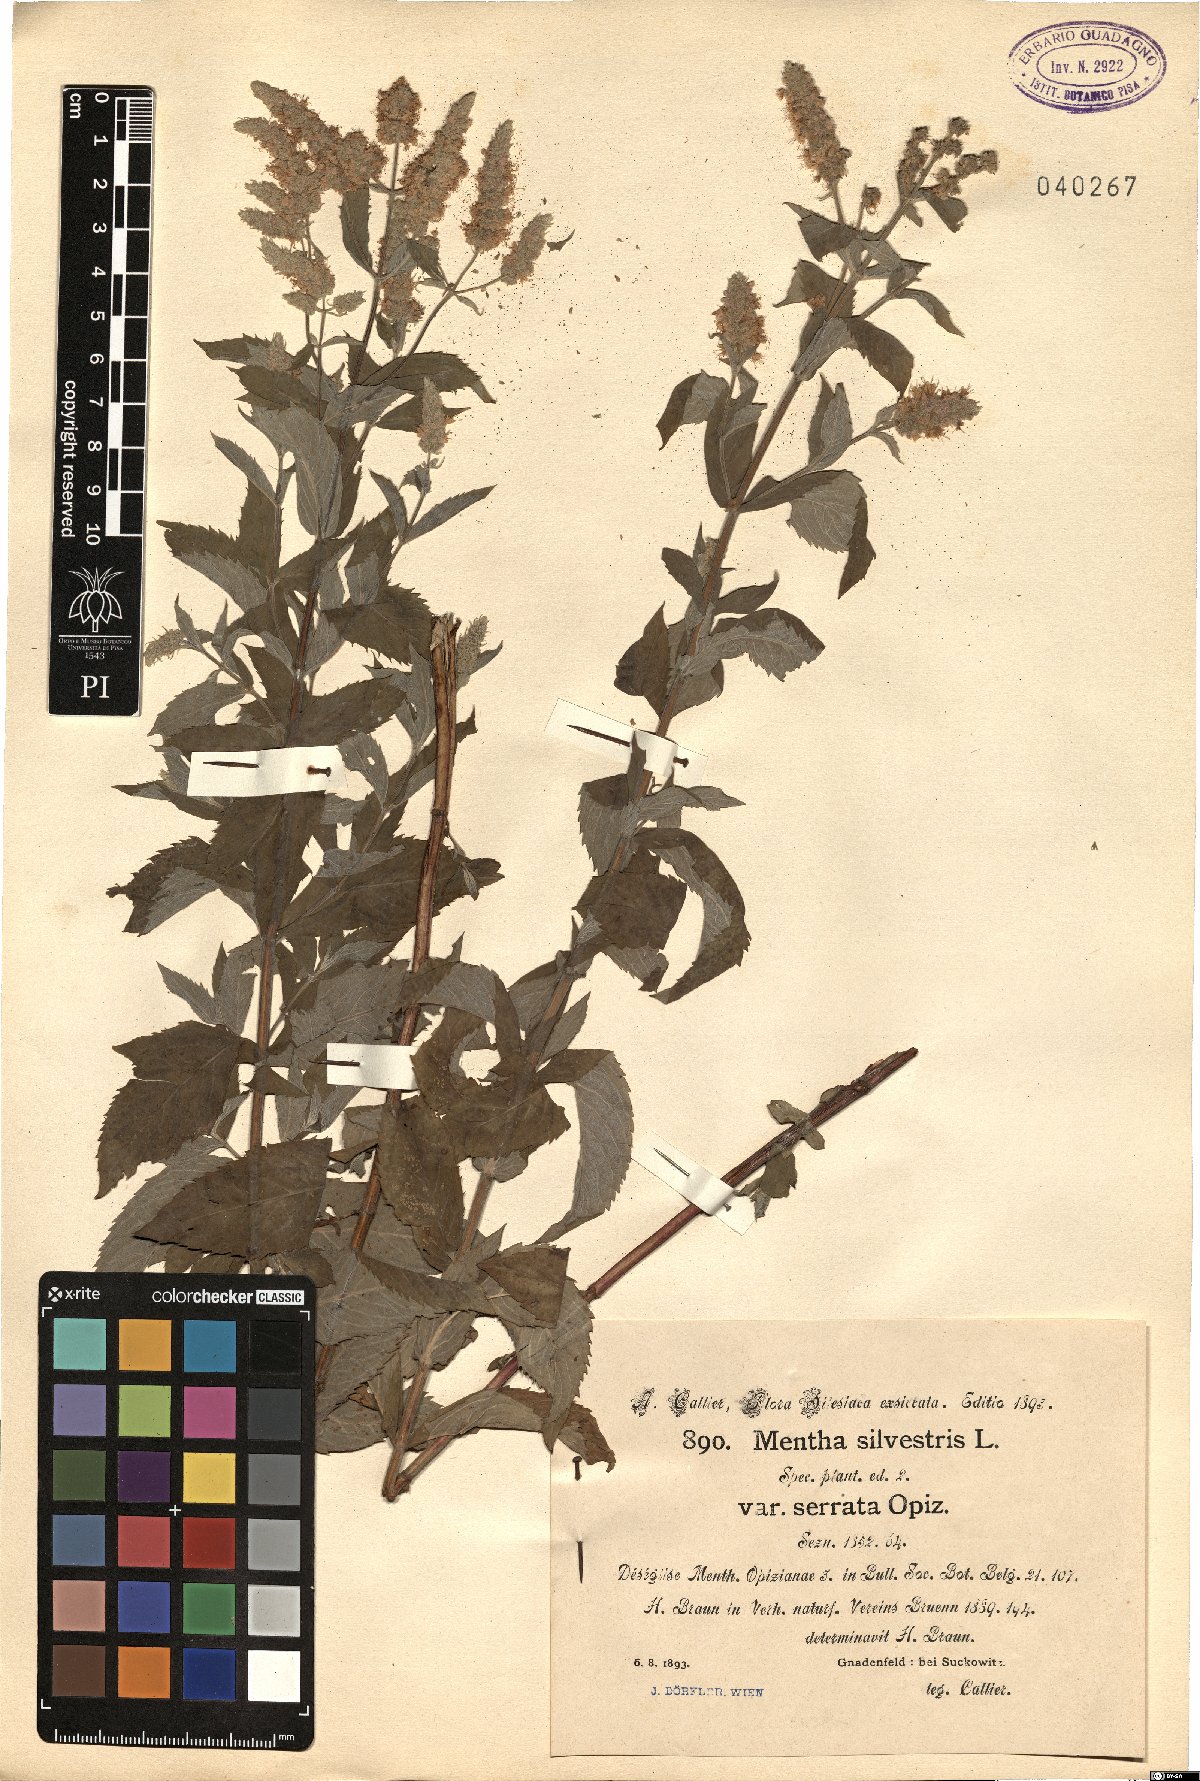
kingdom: Plantae
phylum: Tracheophyta
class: Magnoliopsida
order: Lamiales
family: Lamiaceae
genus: Mentha
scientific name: Mentha
